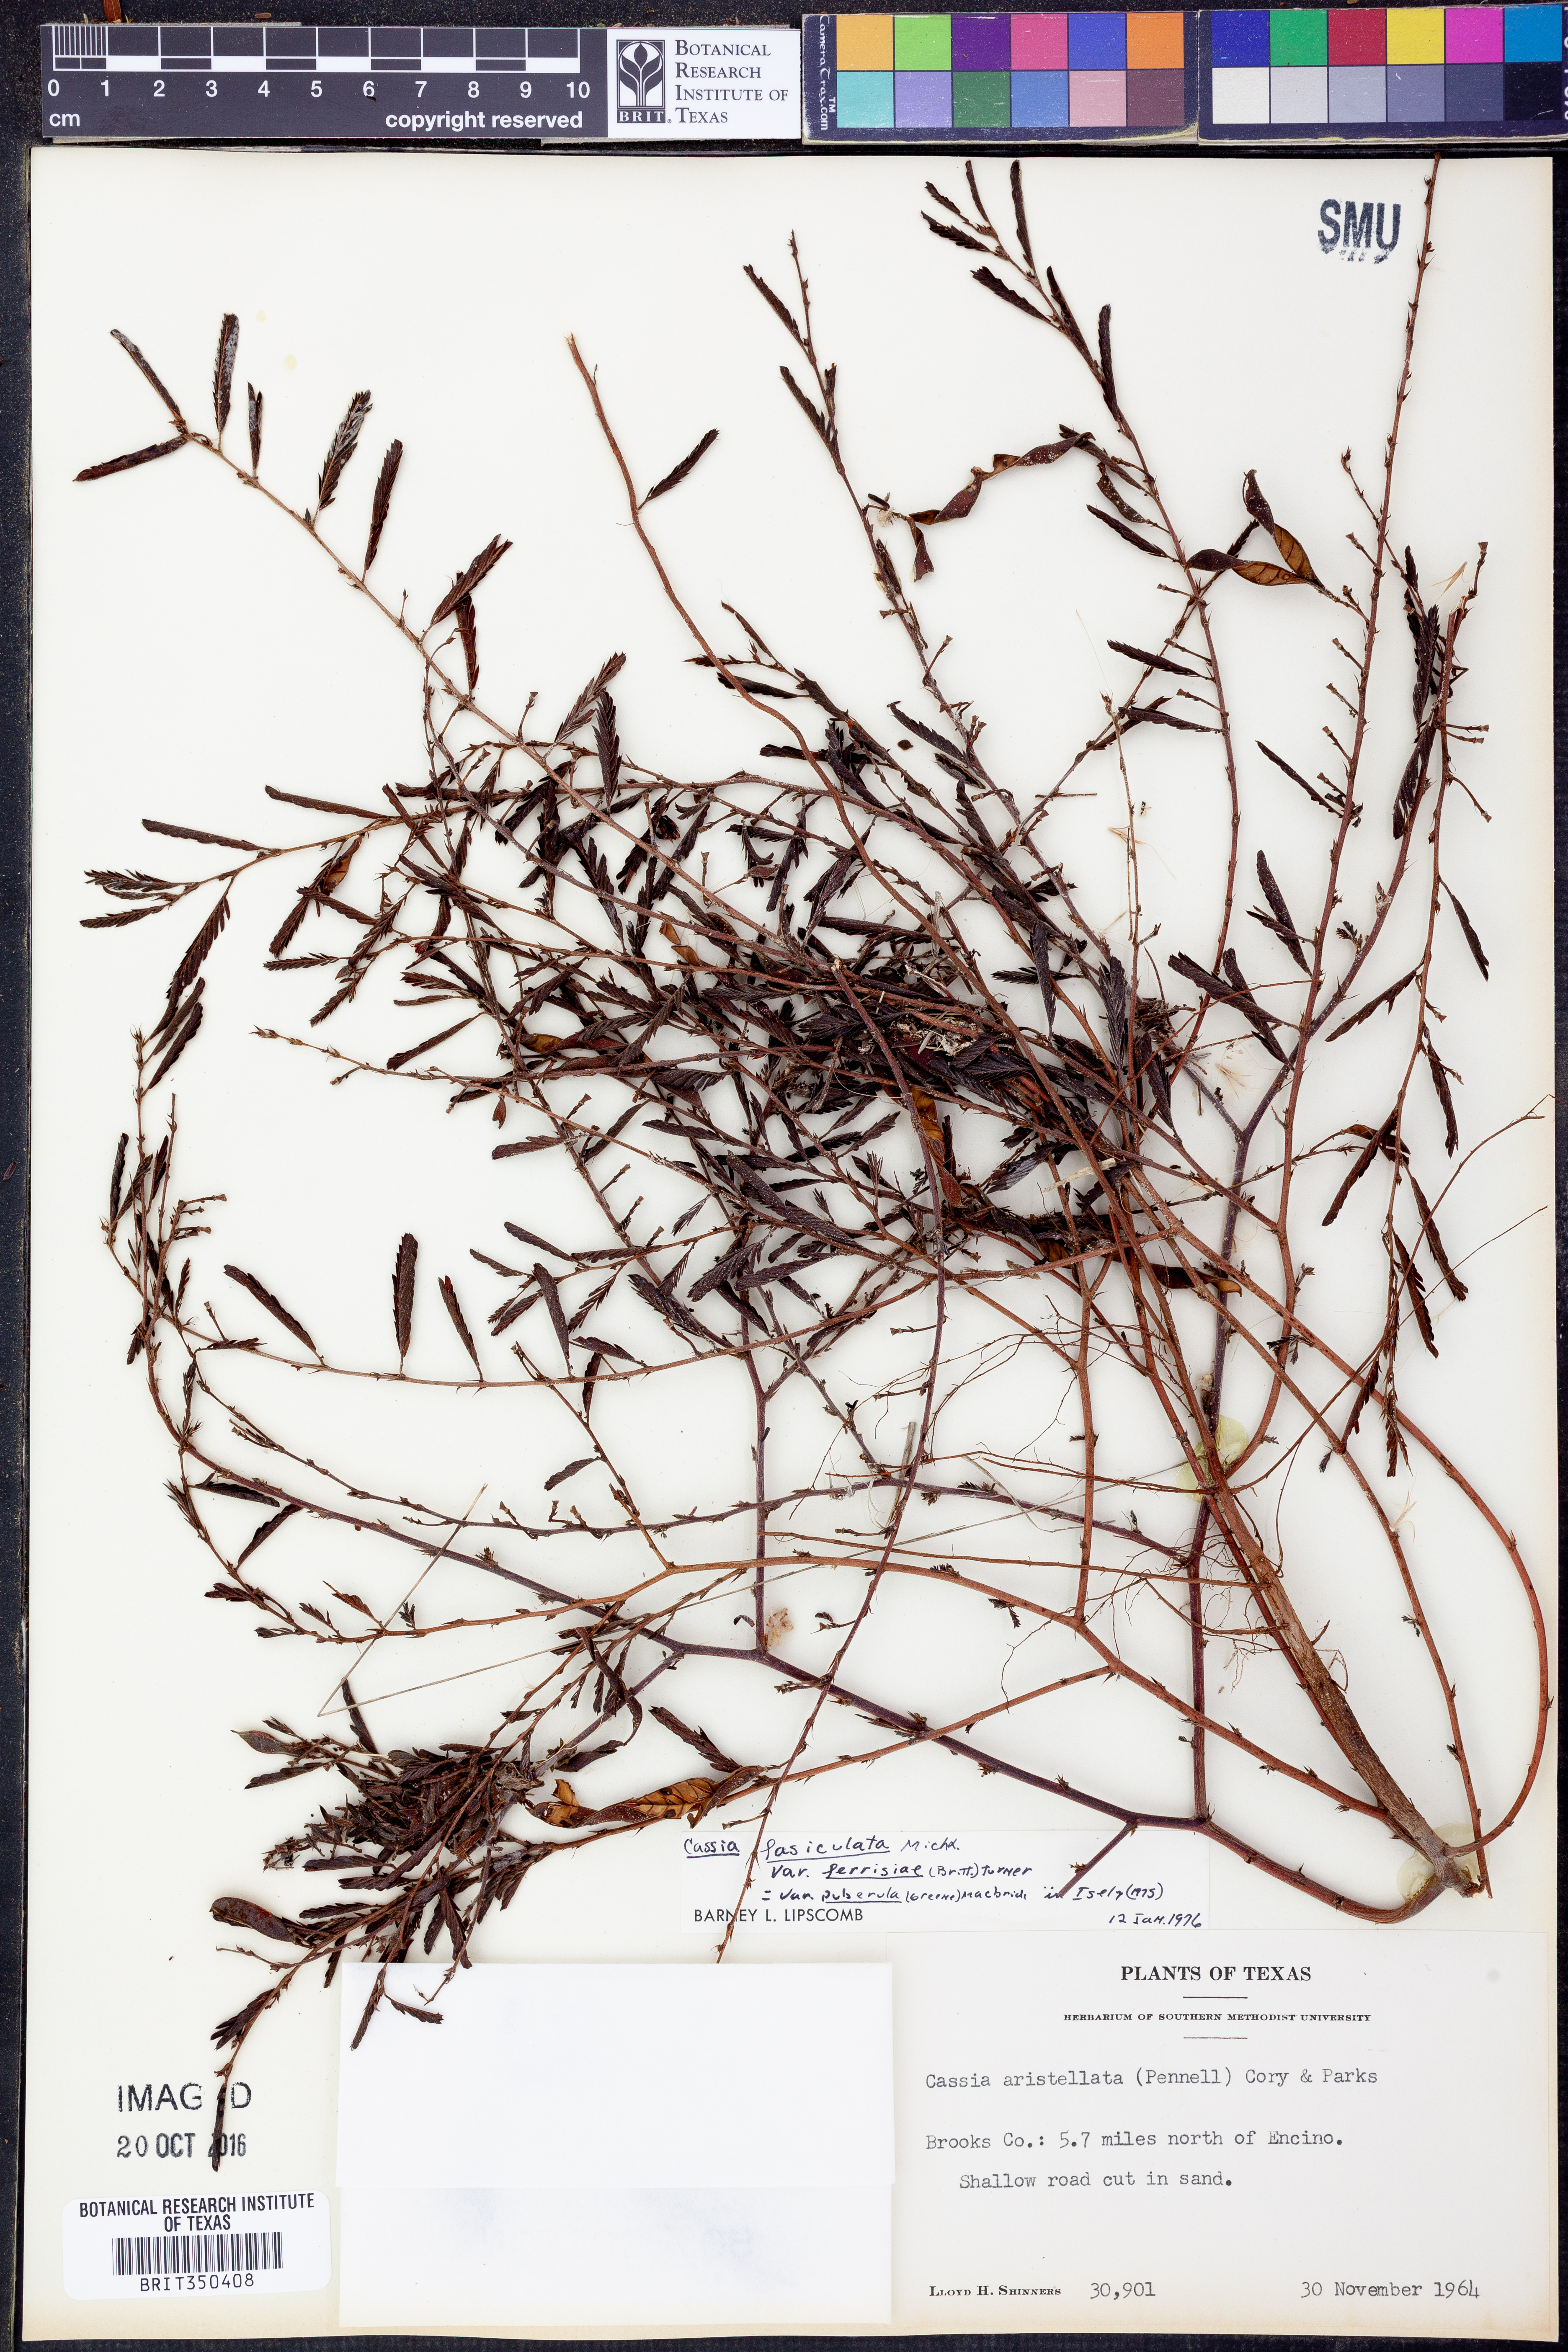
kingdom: Plantae
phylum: Tracheophyta
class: Magnoliopsida
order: Fabales
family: Fabaceae
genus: Chamaecrista
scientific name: Chamaecrista fasciculata
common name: Golden cassia
